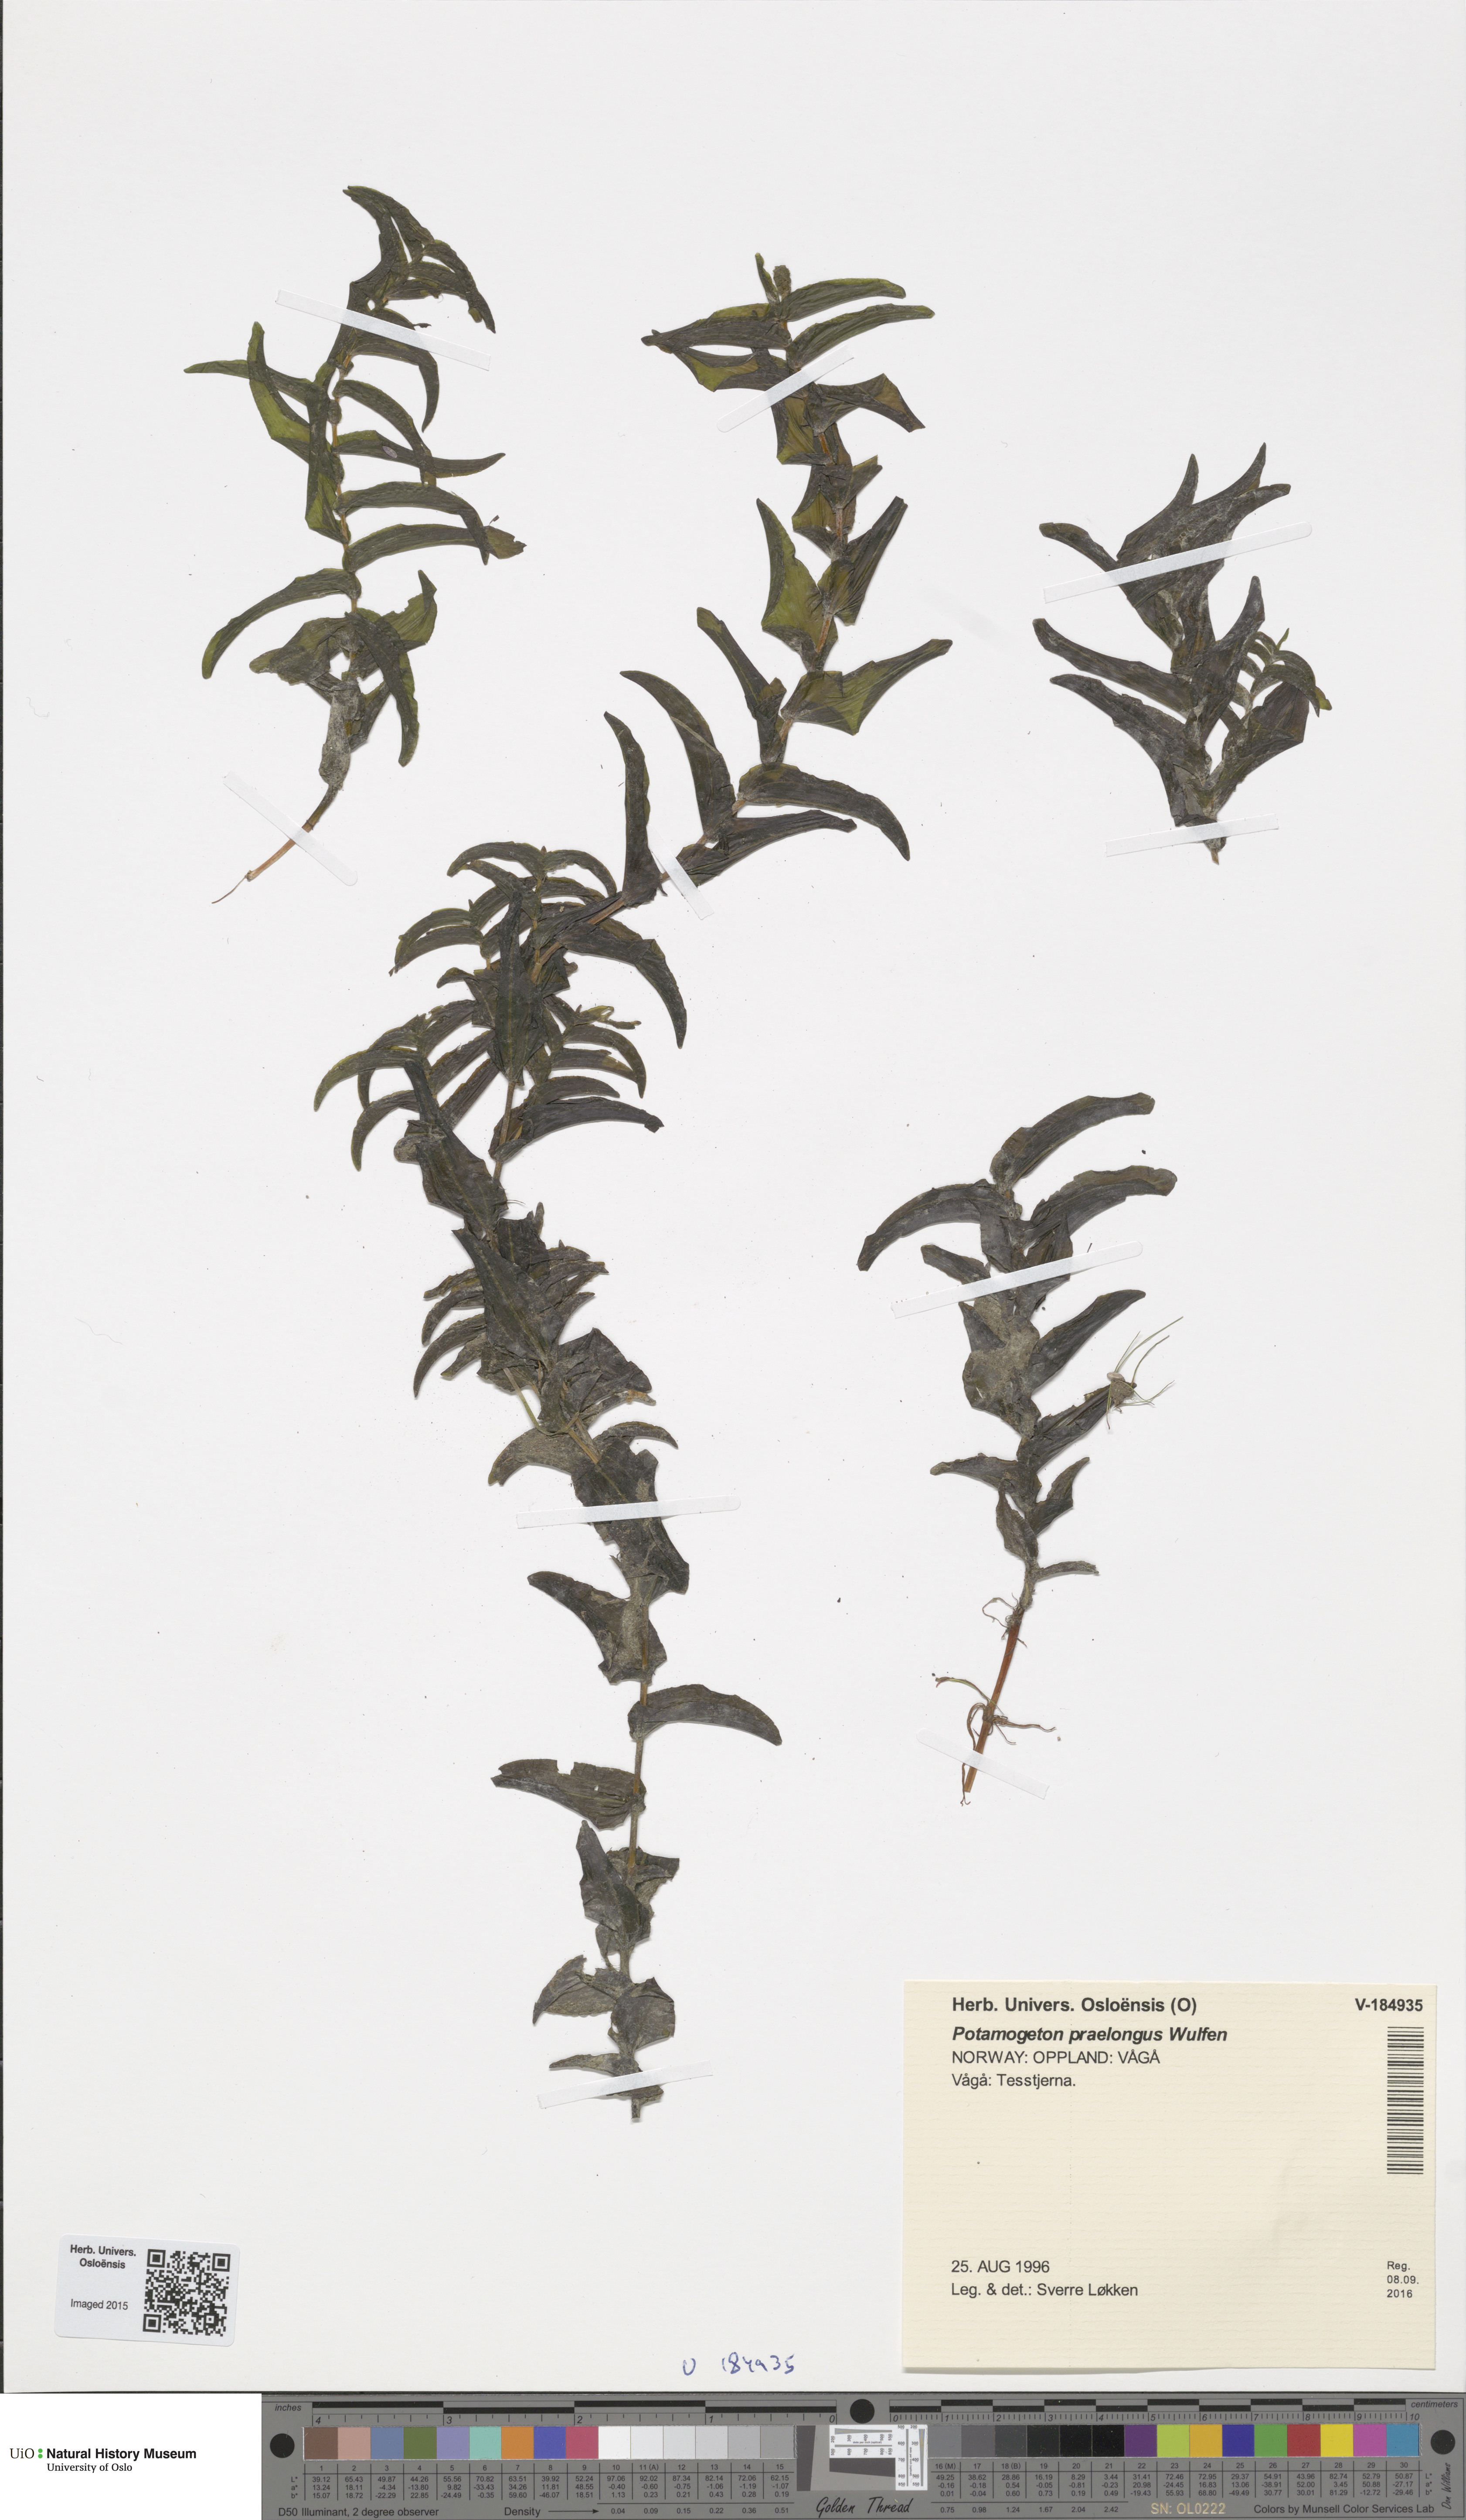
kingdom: Plantae
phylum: Tracheophyta
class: Liliopsida
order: Alismatales
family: Potamogetonaceae
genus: Potamogeton
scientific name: Potamogeton perfoliatus
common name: Perfoliate pondweed
